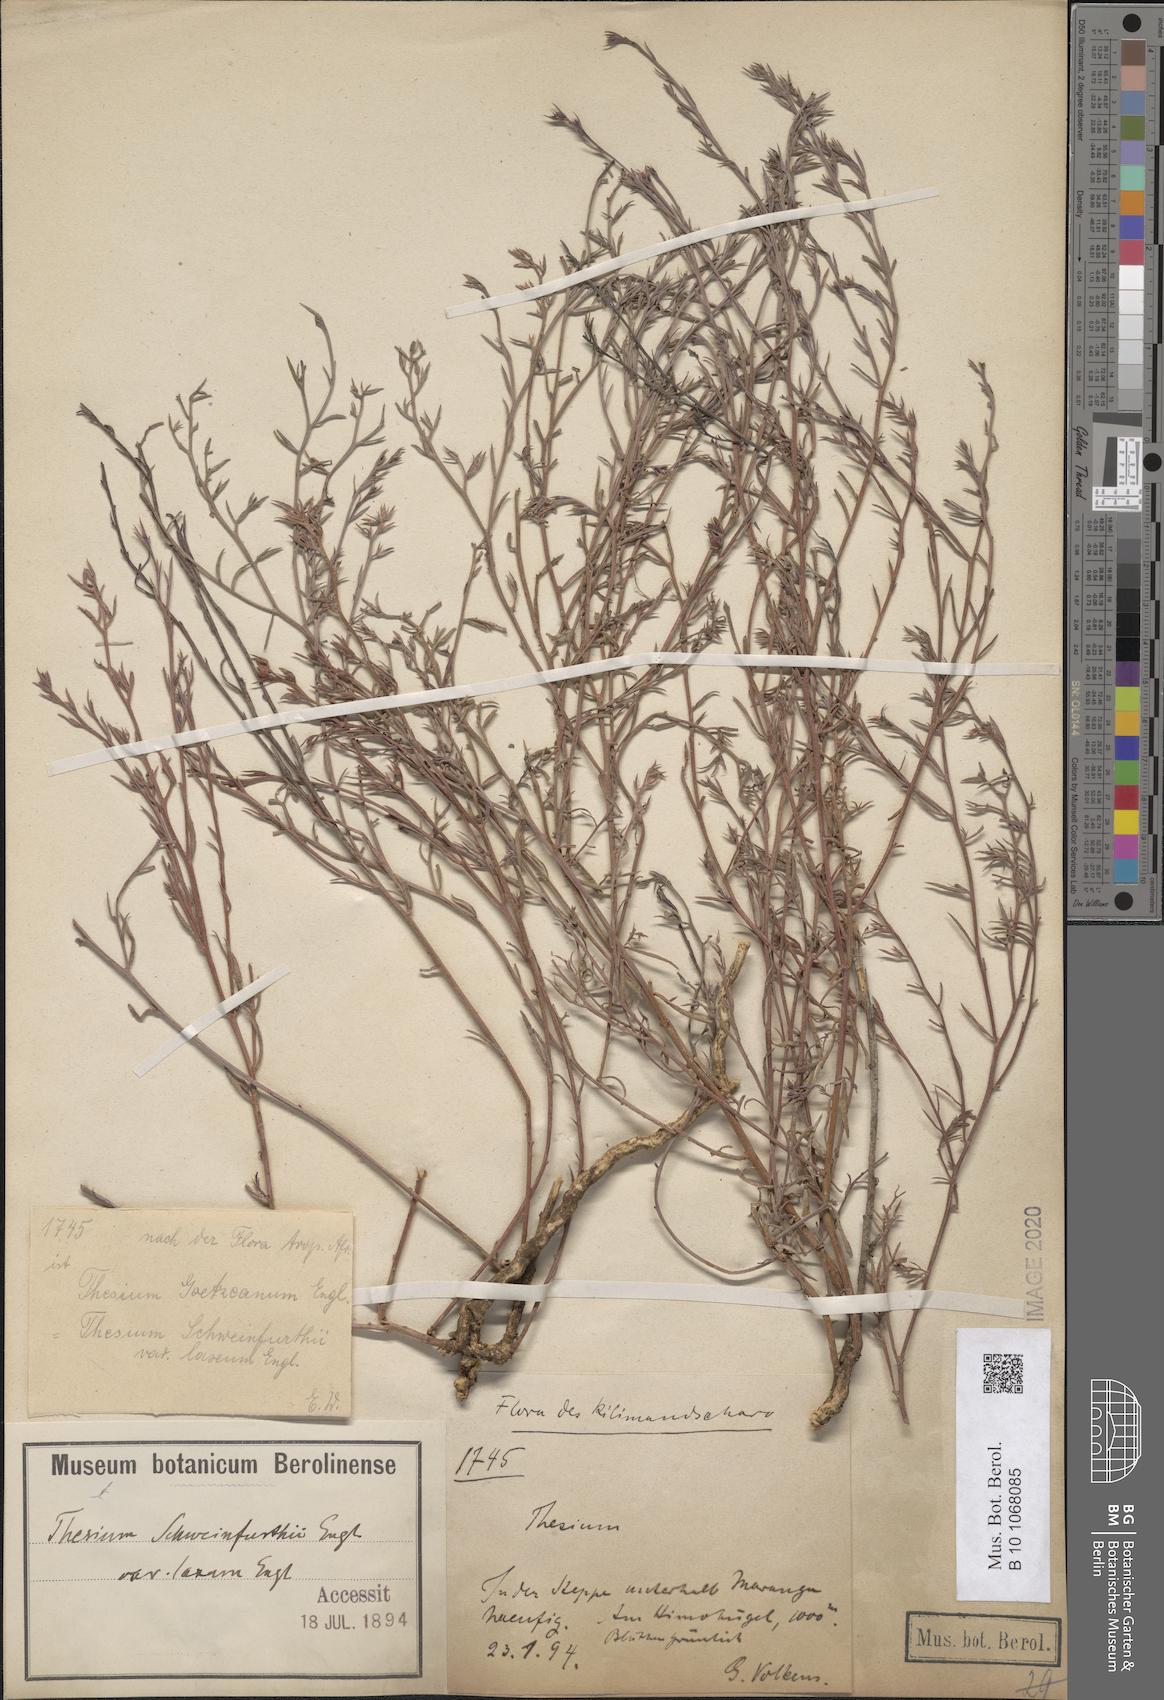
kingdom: Plantae
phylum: Tracheophyta
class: Magnoliopsida
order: Santalales
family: Thesiaceae
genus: Thesium
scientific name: Thesium goetzeanum
